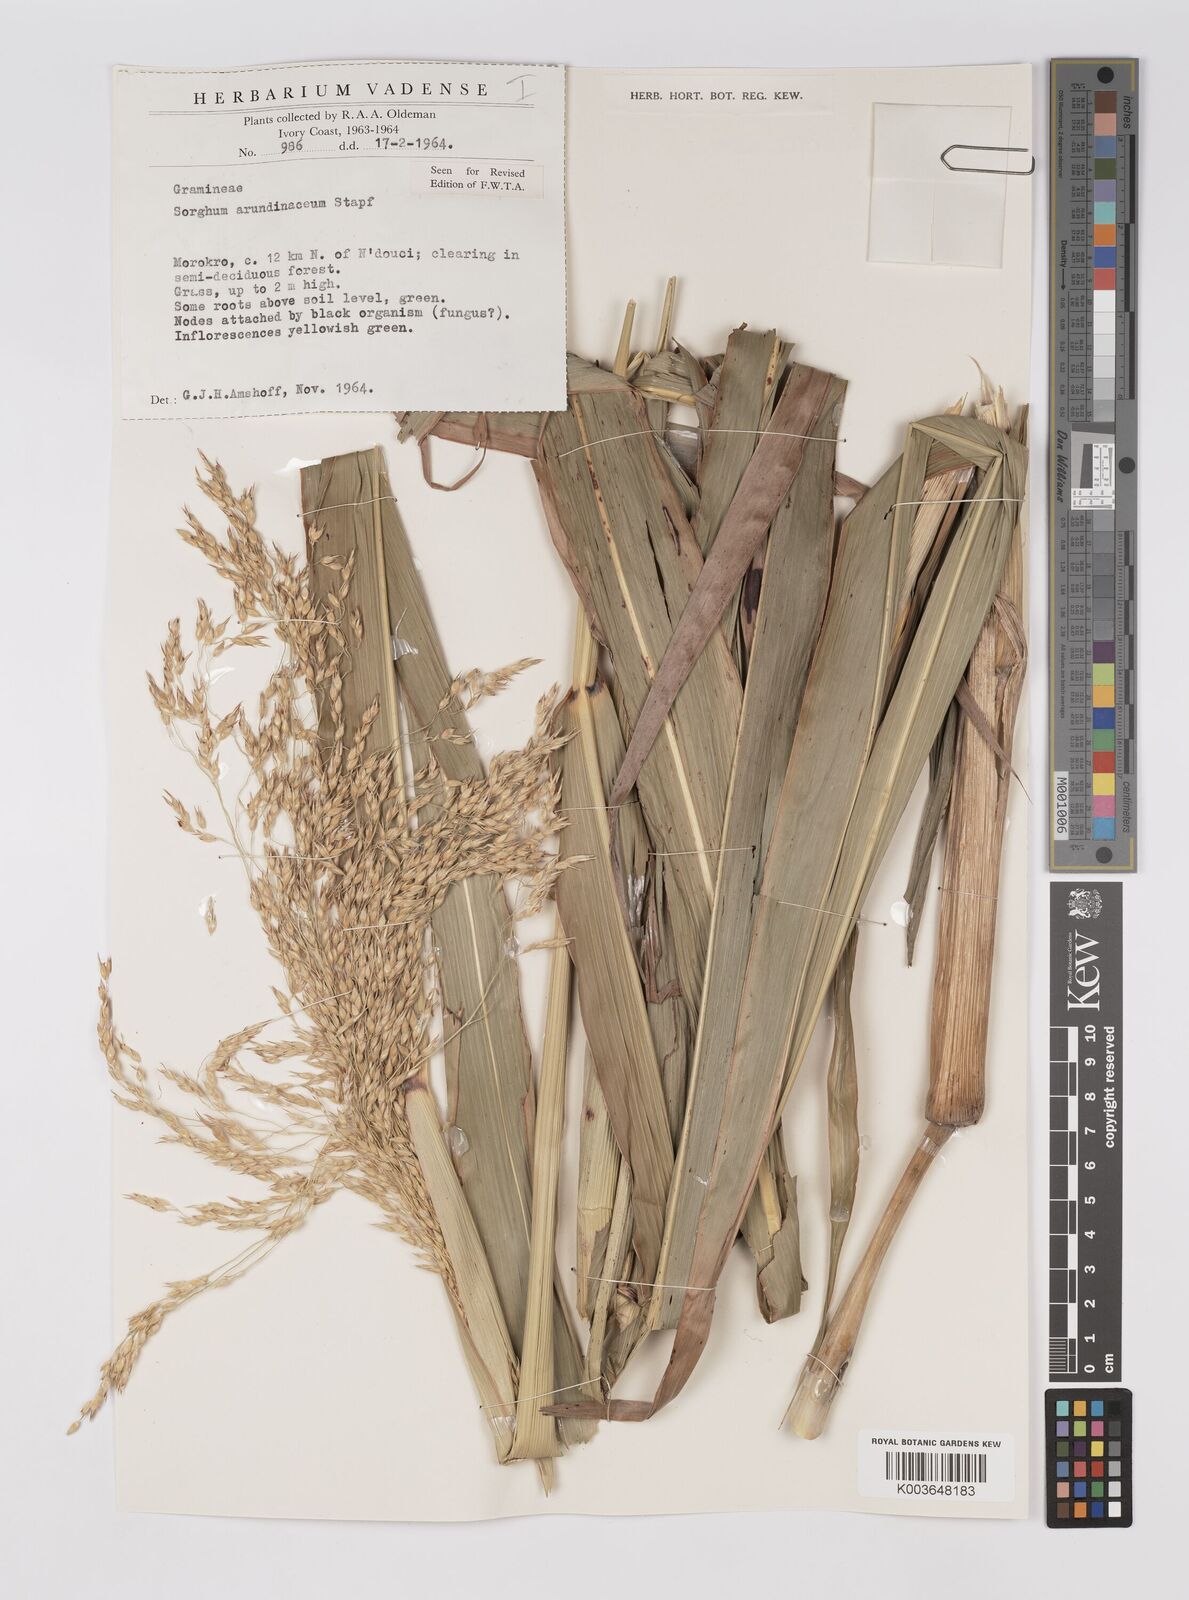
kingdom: Plantae
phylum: Tracheophyta
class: Liliopsida
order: Poales
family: Poaceae
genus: Sorghum
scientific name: Sorghum arundinaceum
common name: Sorghum
